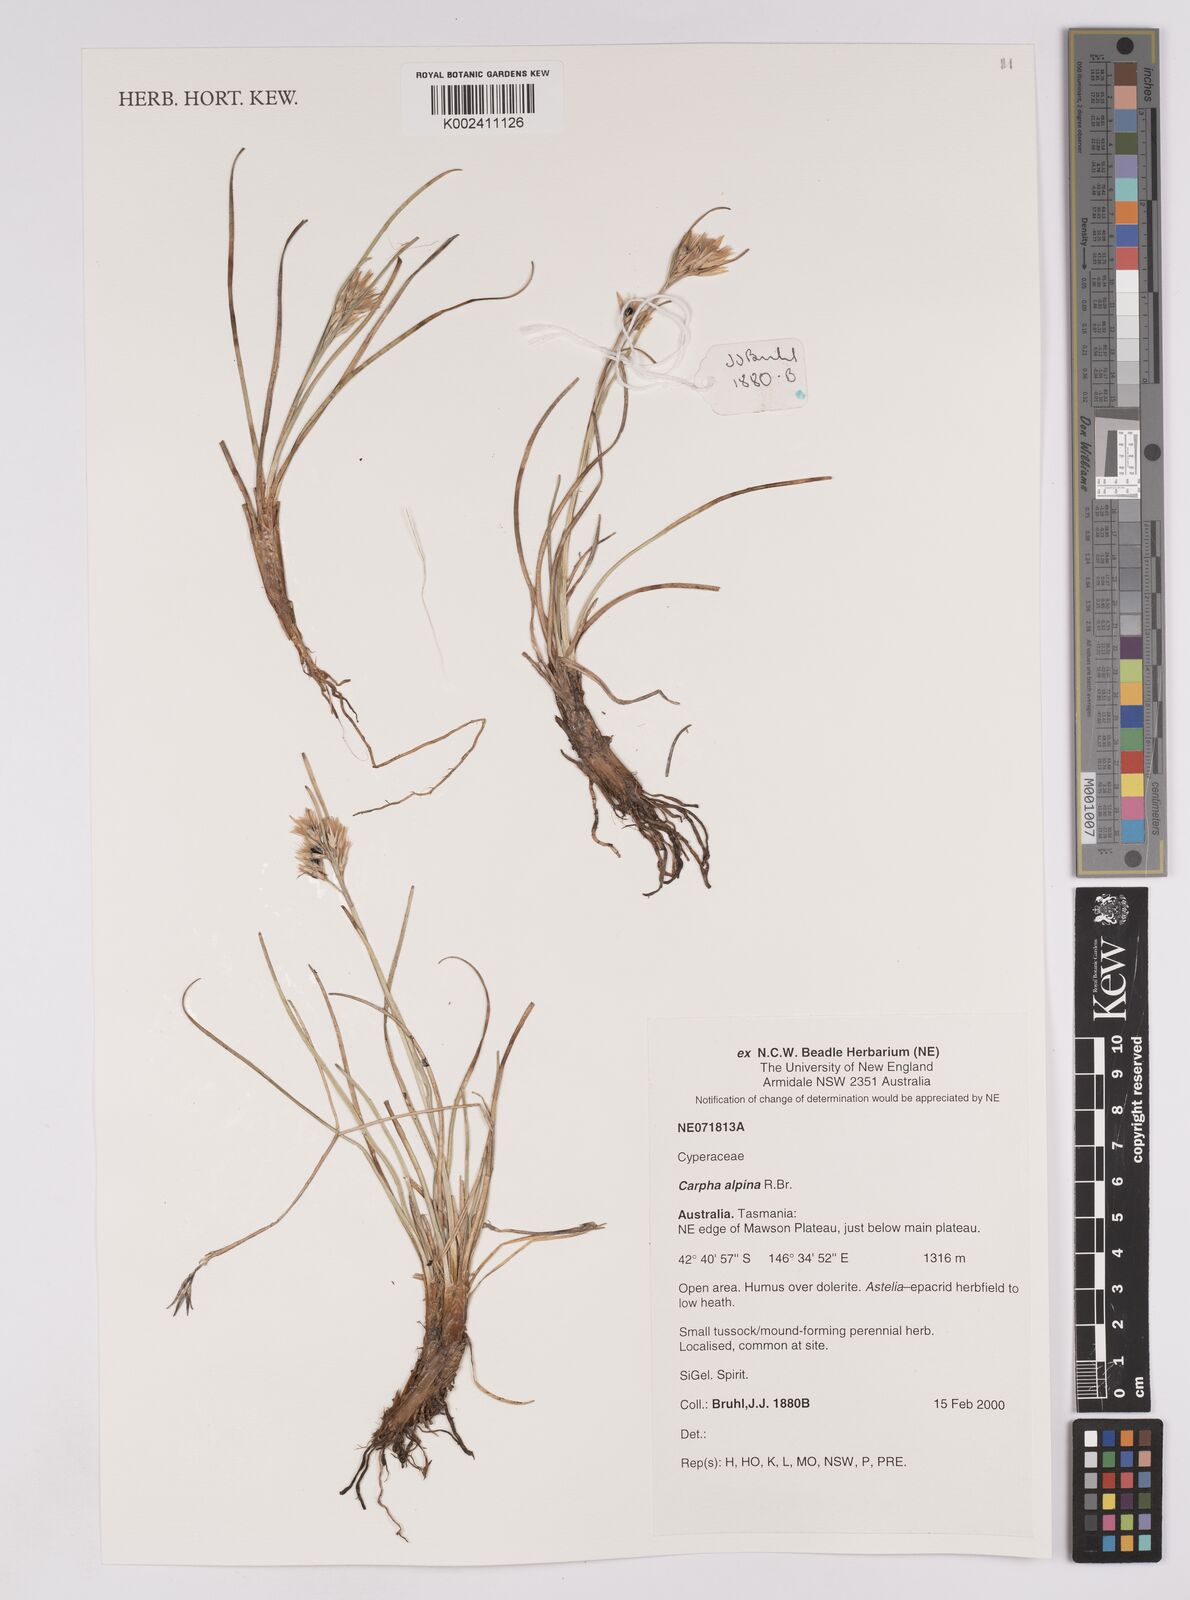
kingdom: Plantae
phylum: Tracheophyta
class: Liliopsida
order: Poales
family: Cyperaceae
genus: Carpha
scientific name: Carpha alpina
